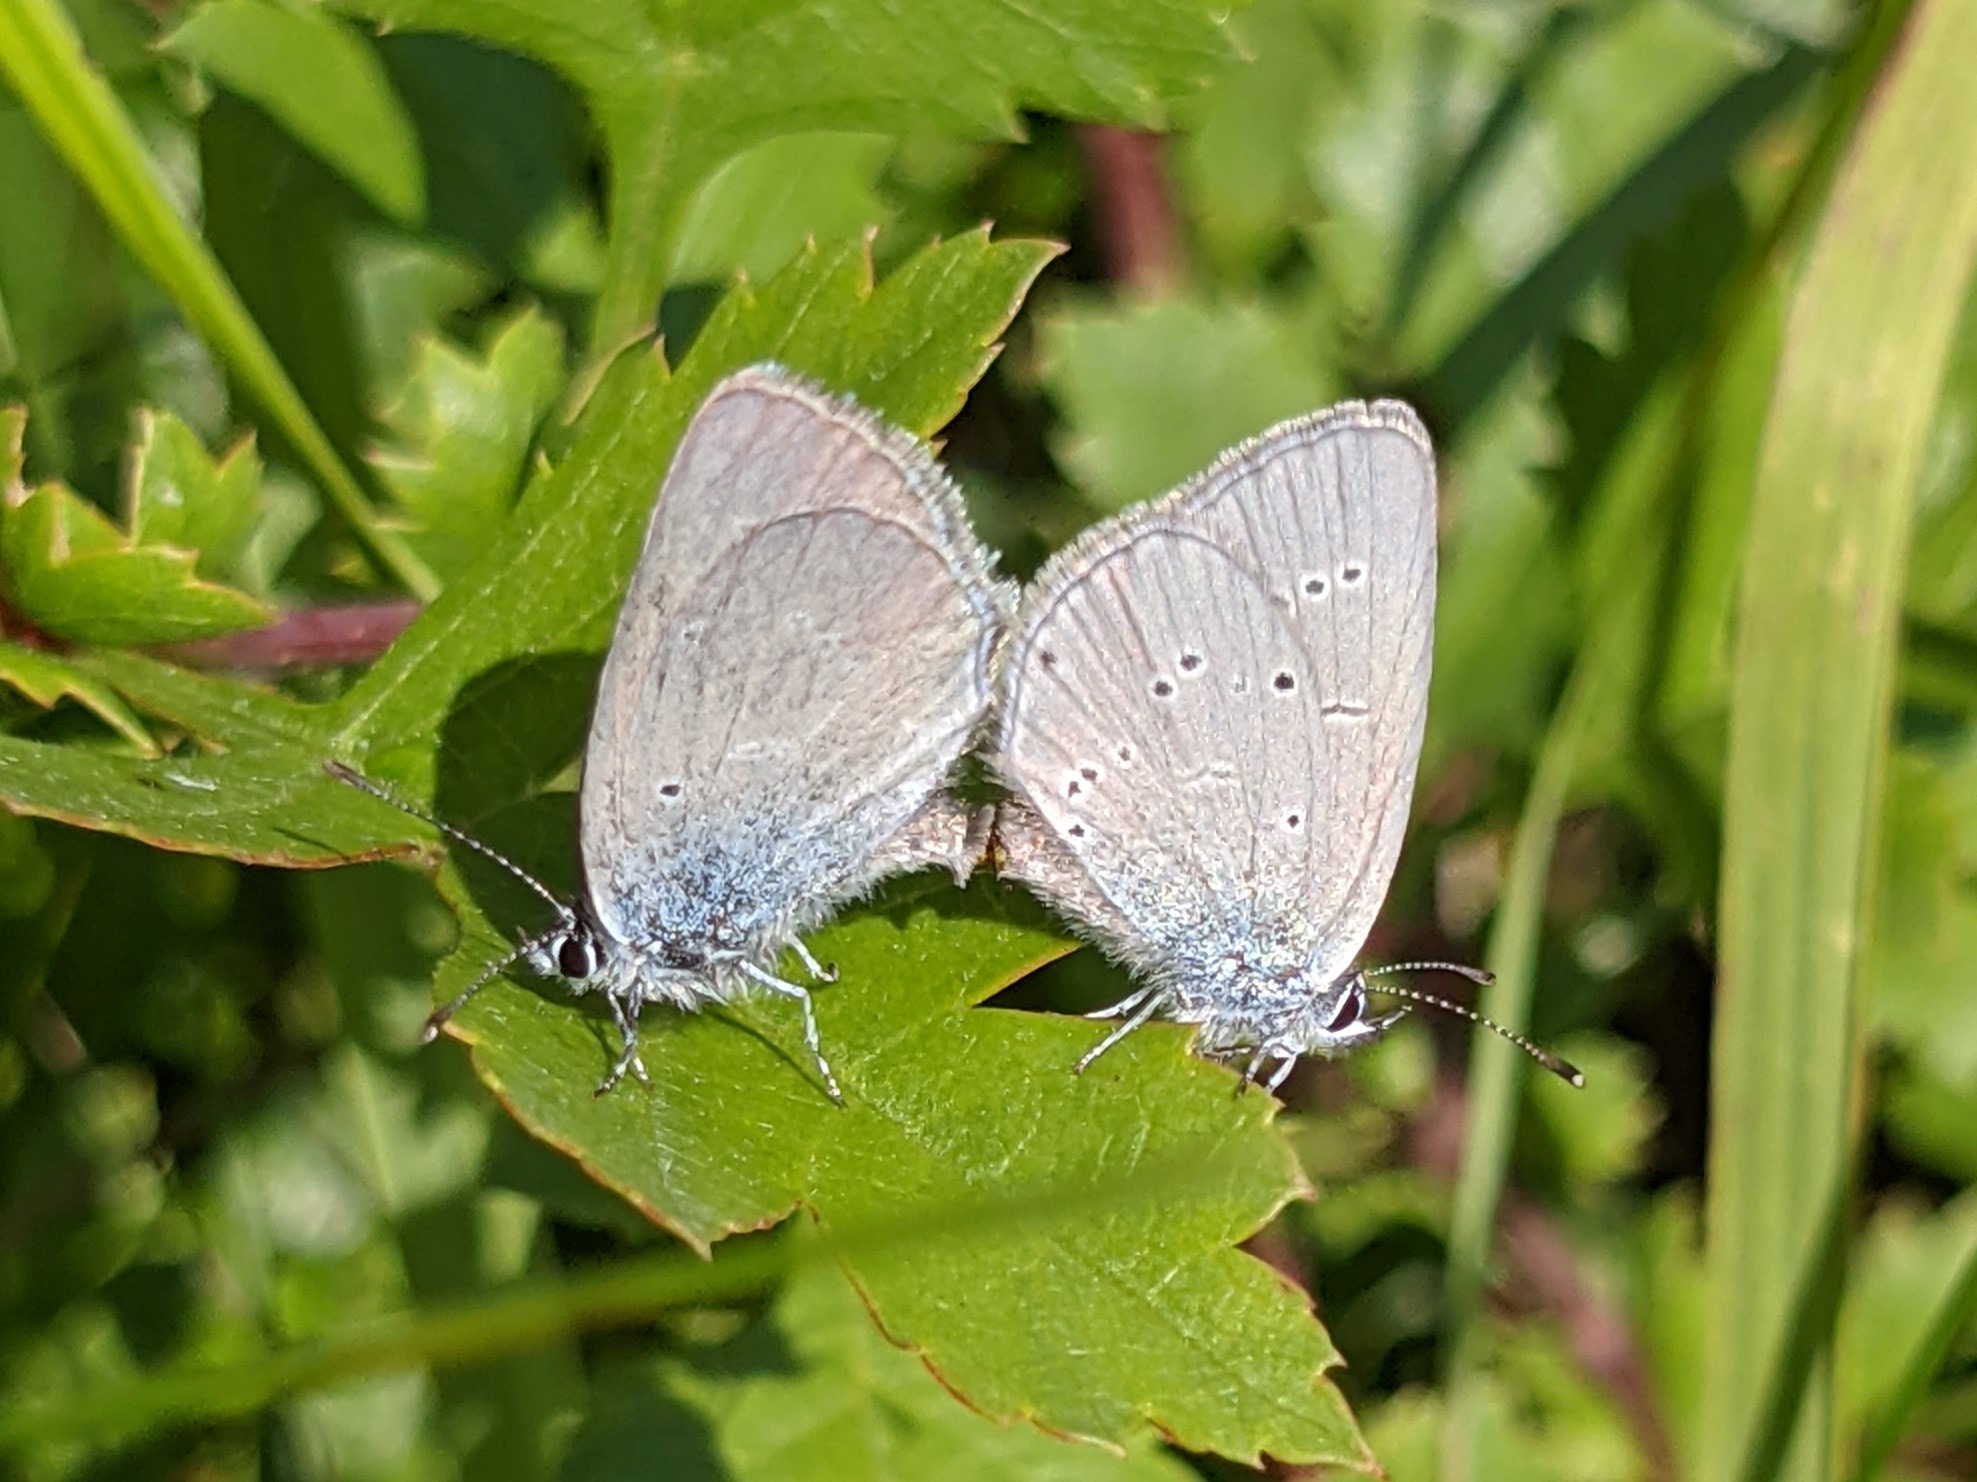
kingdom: Animalia
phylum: Arthropoda
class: Insecta
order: Lepidoptera
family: Lycaenidae
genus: Cupido
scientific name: Cupido minimus
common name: Dværgblåfugl
